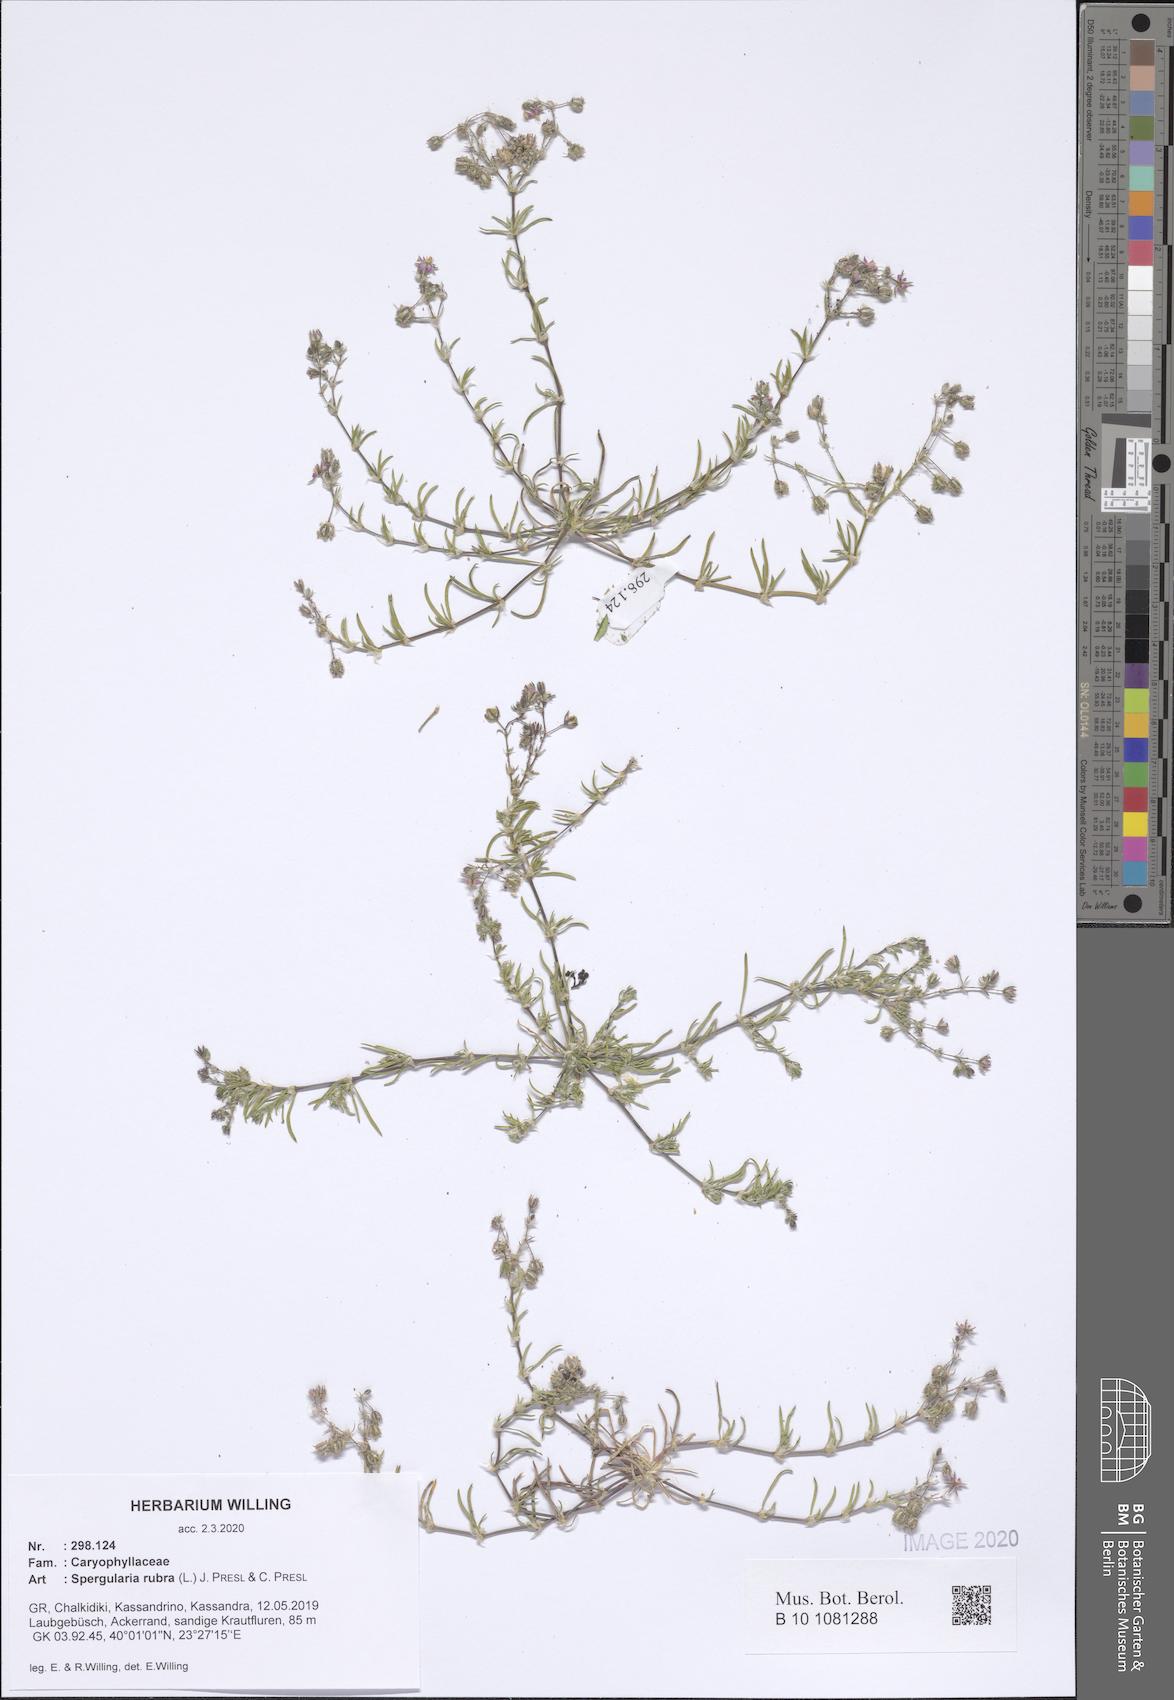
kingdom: Plantae
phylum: Tracheophyta
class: Magnoliopsida
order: Caryophyllales
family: Caryophyllaceae
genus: Spergularia
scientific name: Spergularia rubra
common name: Red sand-spurrey
